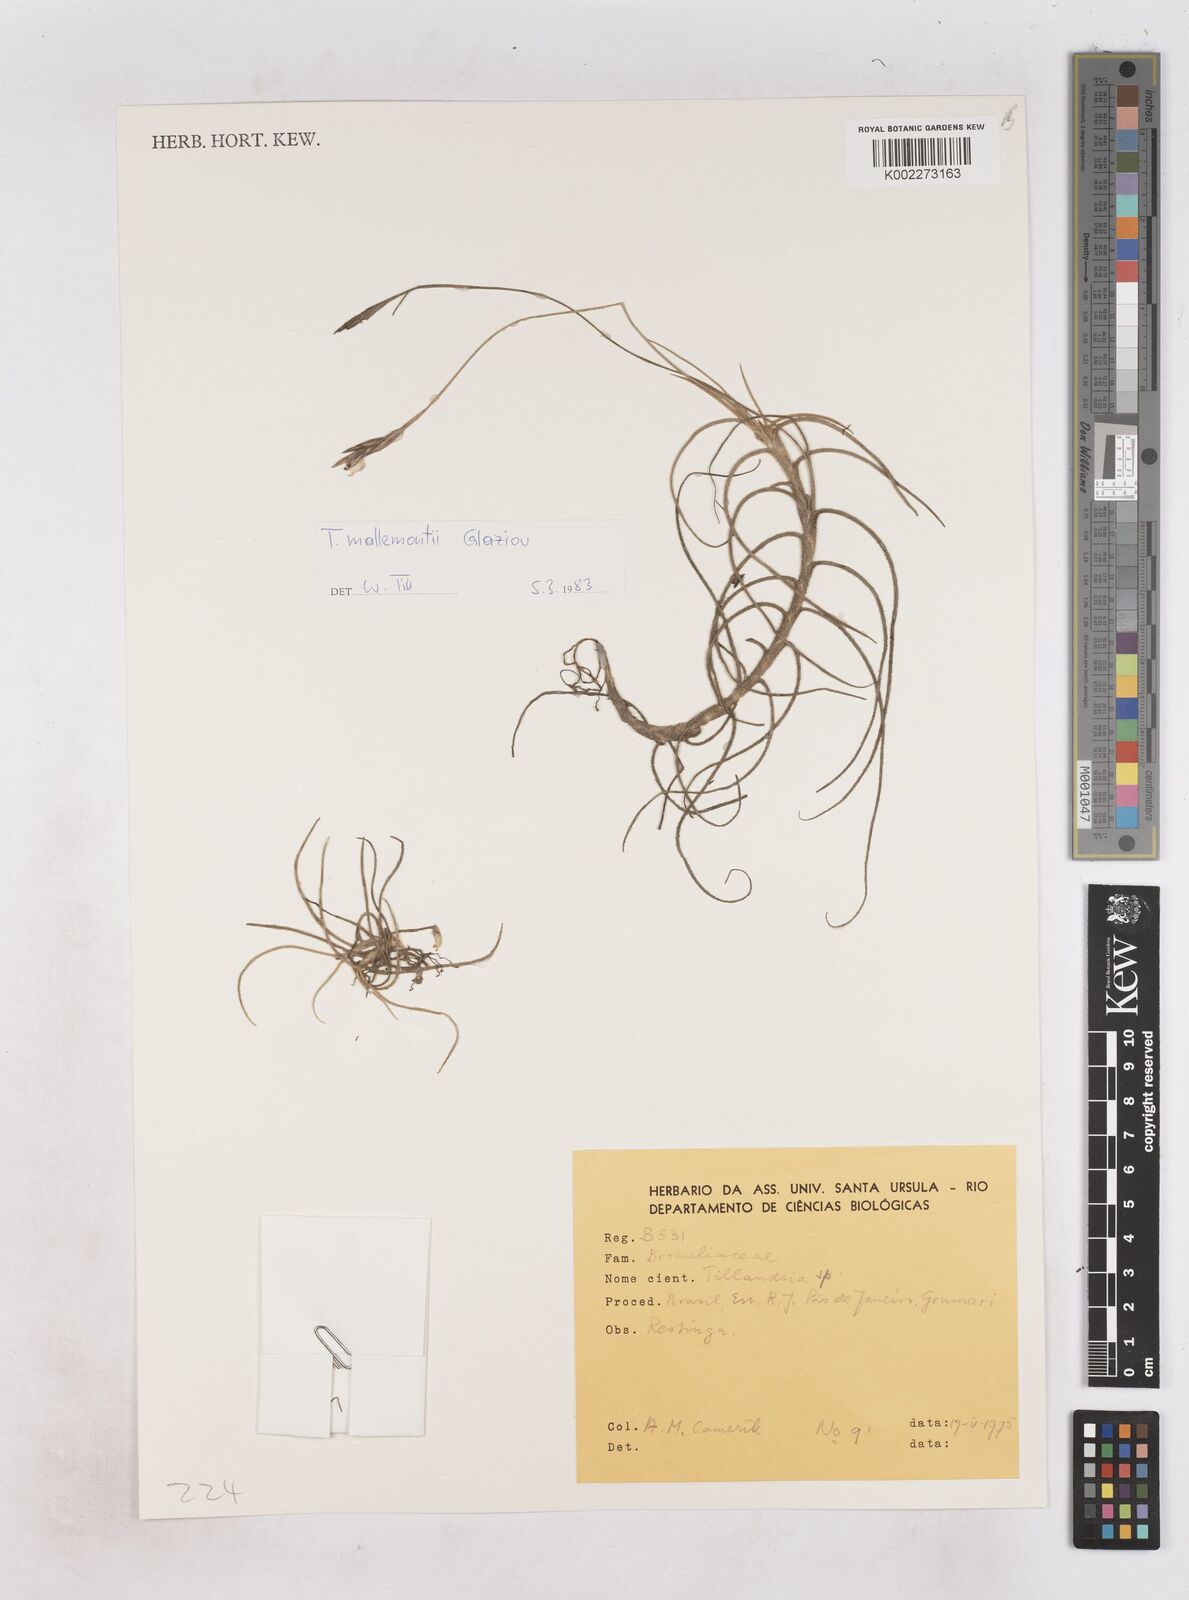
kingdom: Plantae
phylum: Tracheophyta
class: Liliopsida
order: Poales
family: Bromeliaceae
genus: Tillandsia
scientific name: Tillandsia mallemontii
